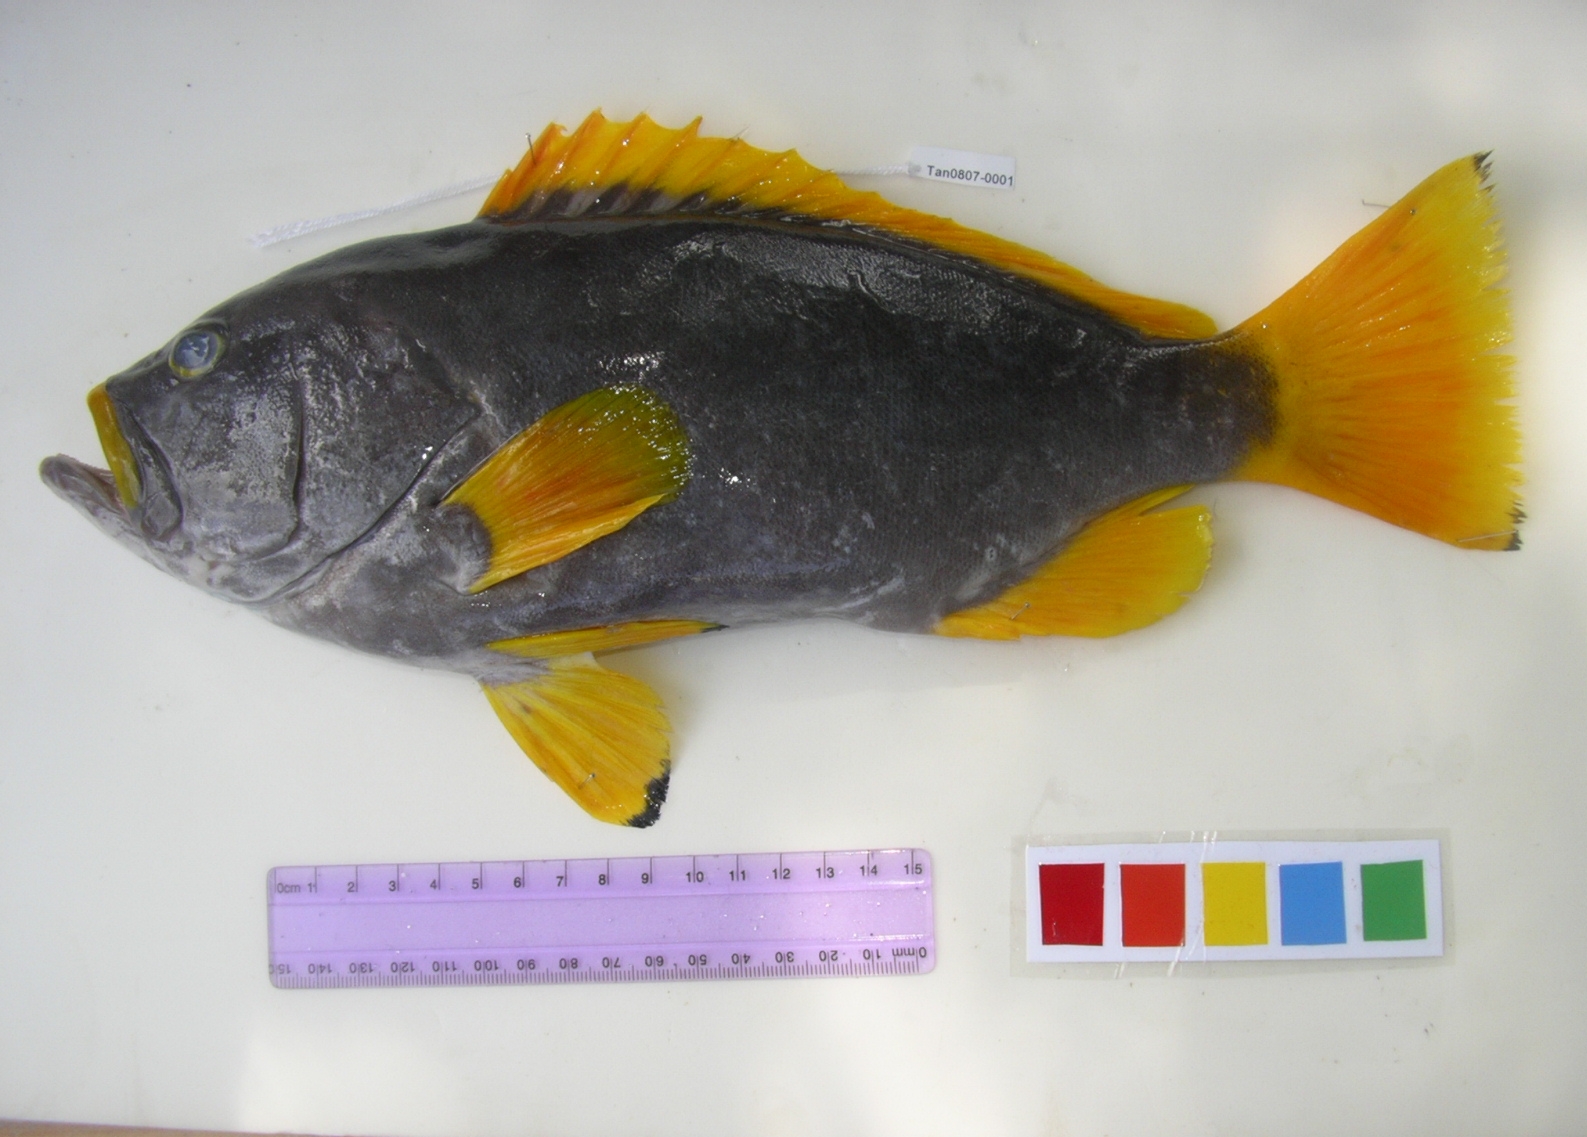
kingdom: Animalia
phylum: Chordata
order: Perciformes
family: Serranidae
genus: Epinephelus
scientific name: Epinephelus flavocaeruleus
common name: Blue and yellow grouper
